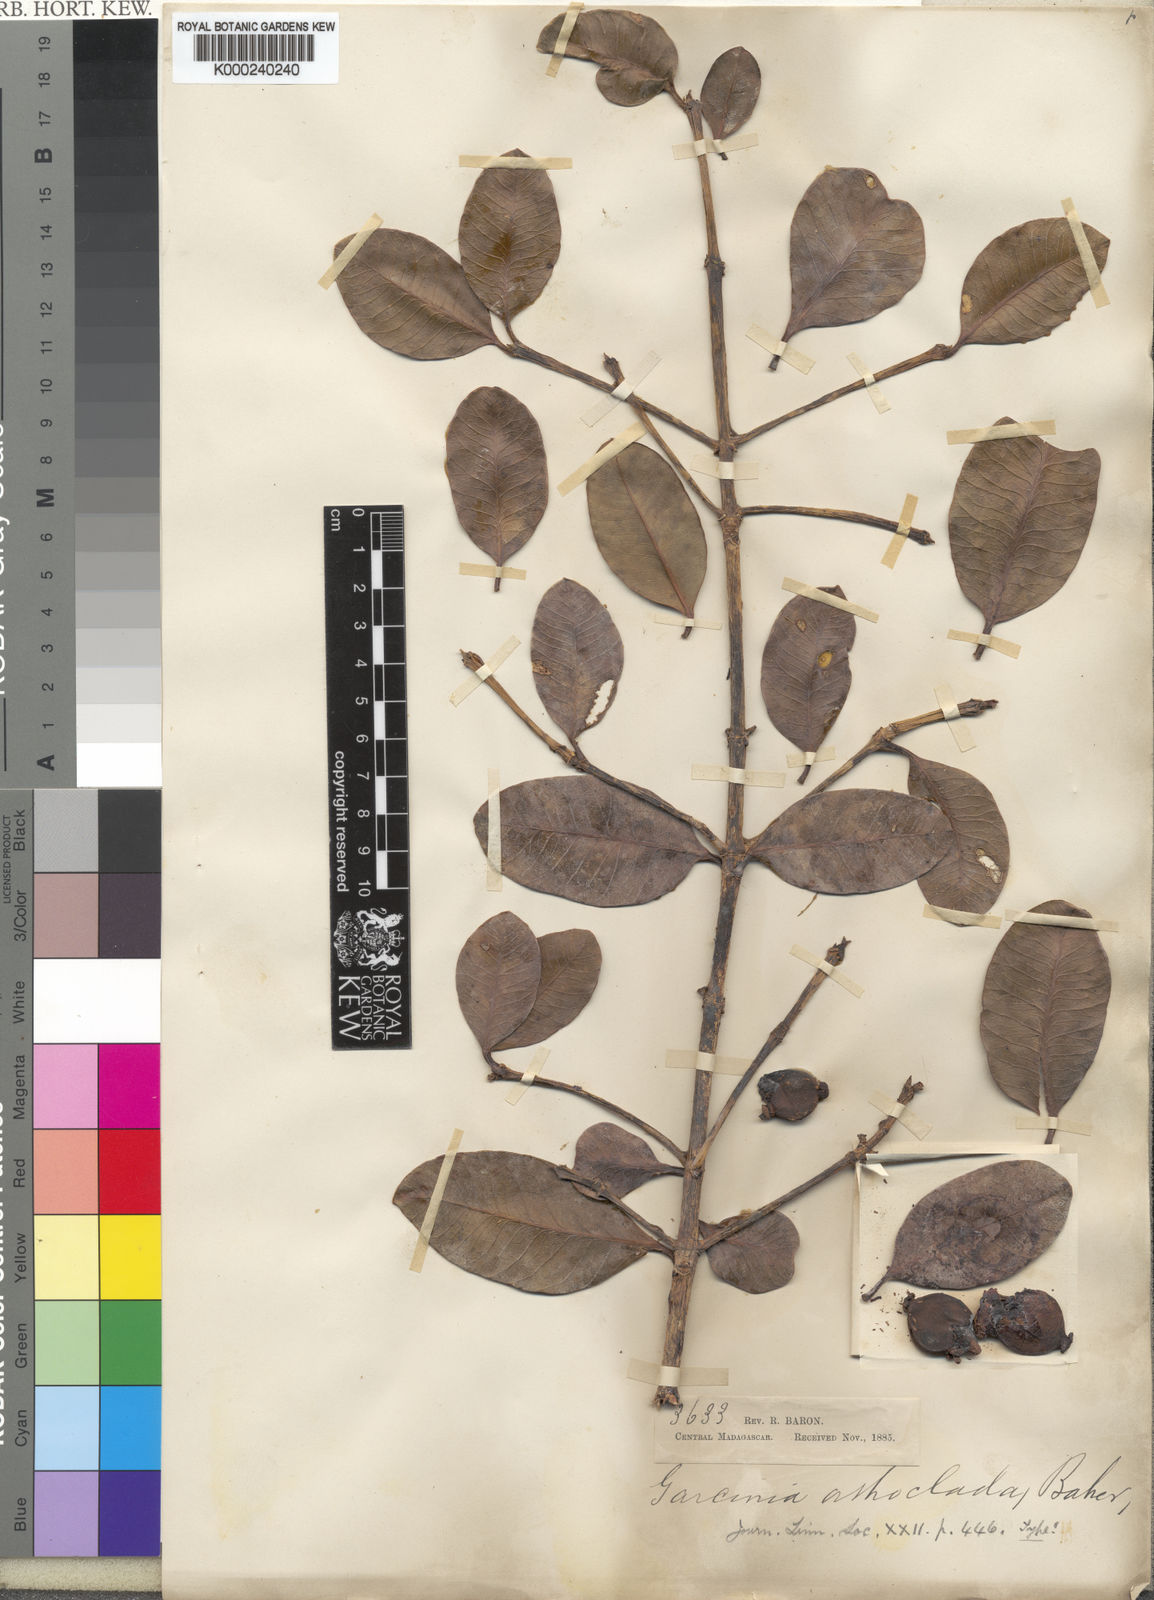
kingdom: Plantae
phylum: Tracheophyta
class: Magnoliopsida
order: Malpighiales
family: Clusiaceae
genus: Garcinia
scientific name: Garcinia orthoclada
